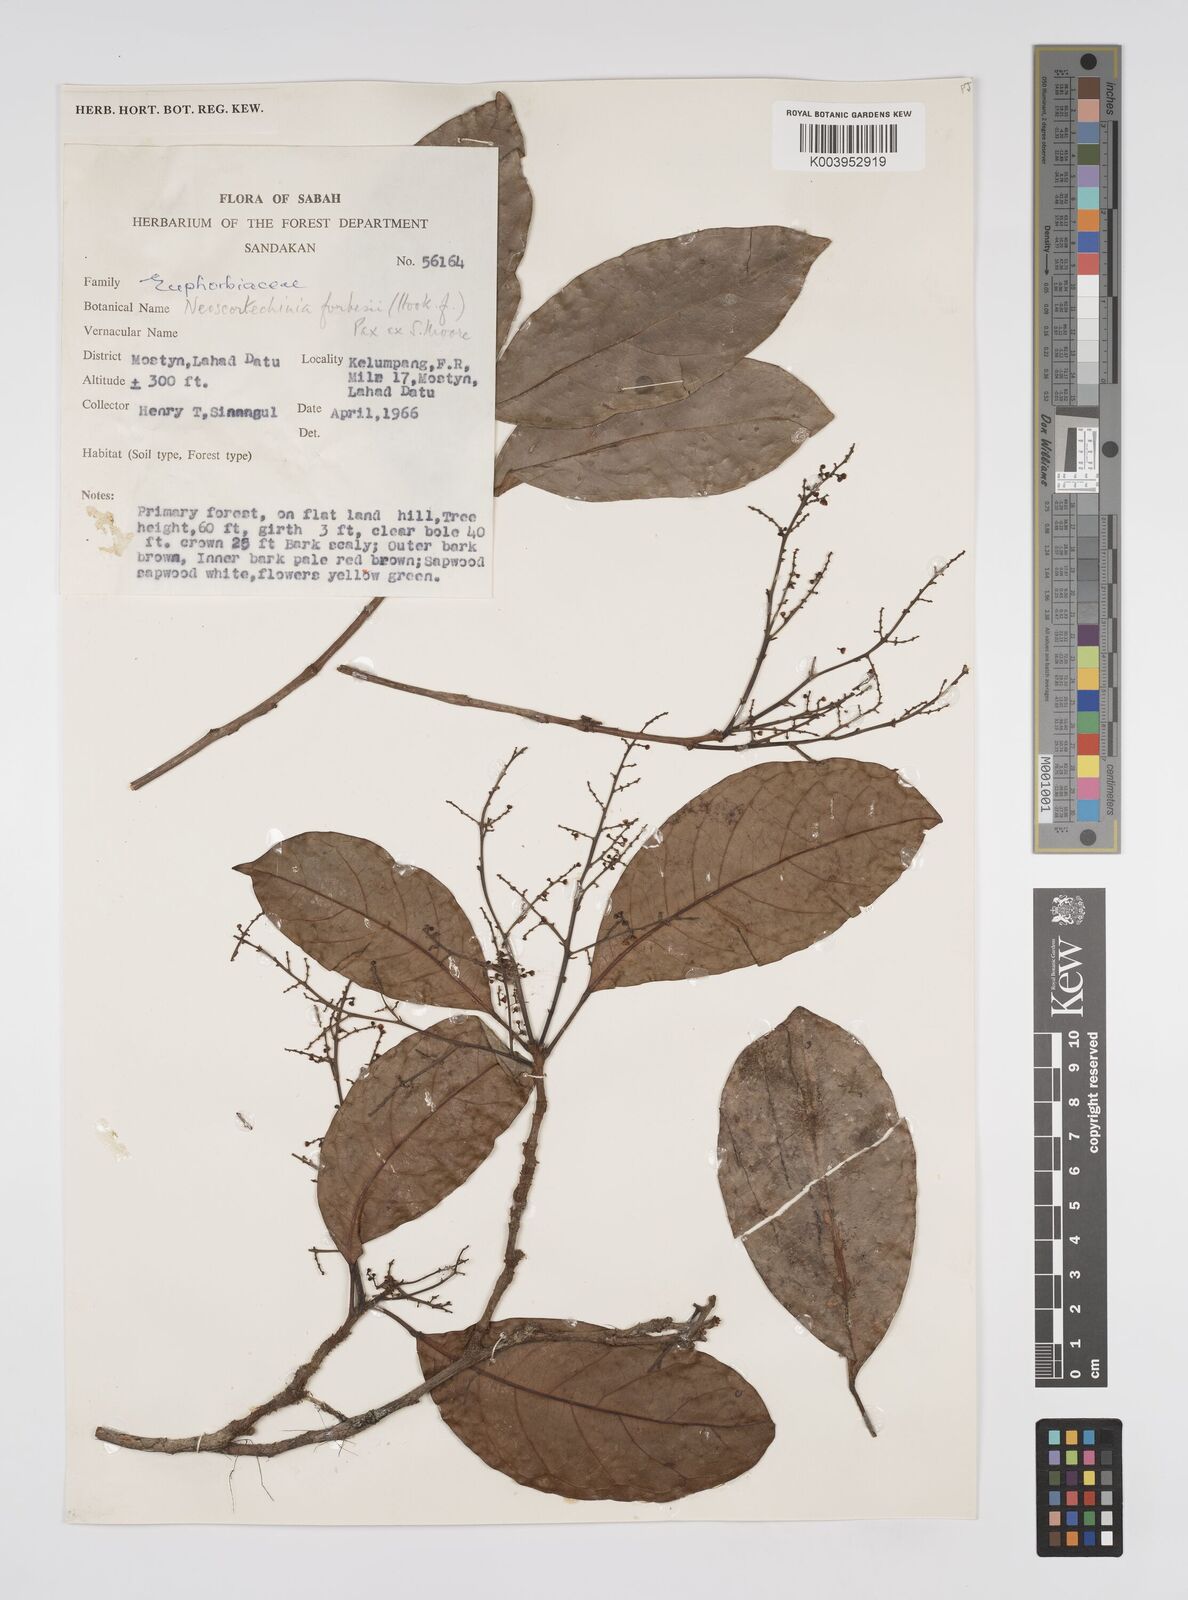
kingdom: Plantae
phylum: Tracheophyta
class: Magnoliopsida
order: Malpighiales
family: Euphorbiaceae
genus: Neoscortechinia
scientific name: Neoscortechinia philippinensis
